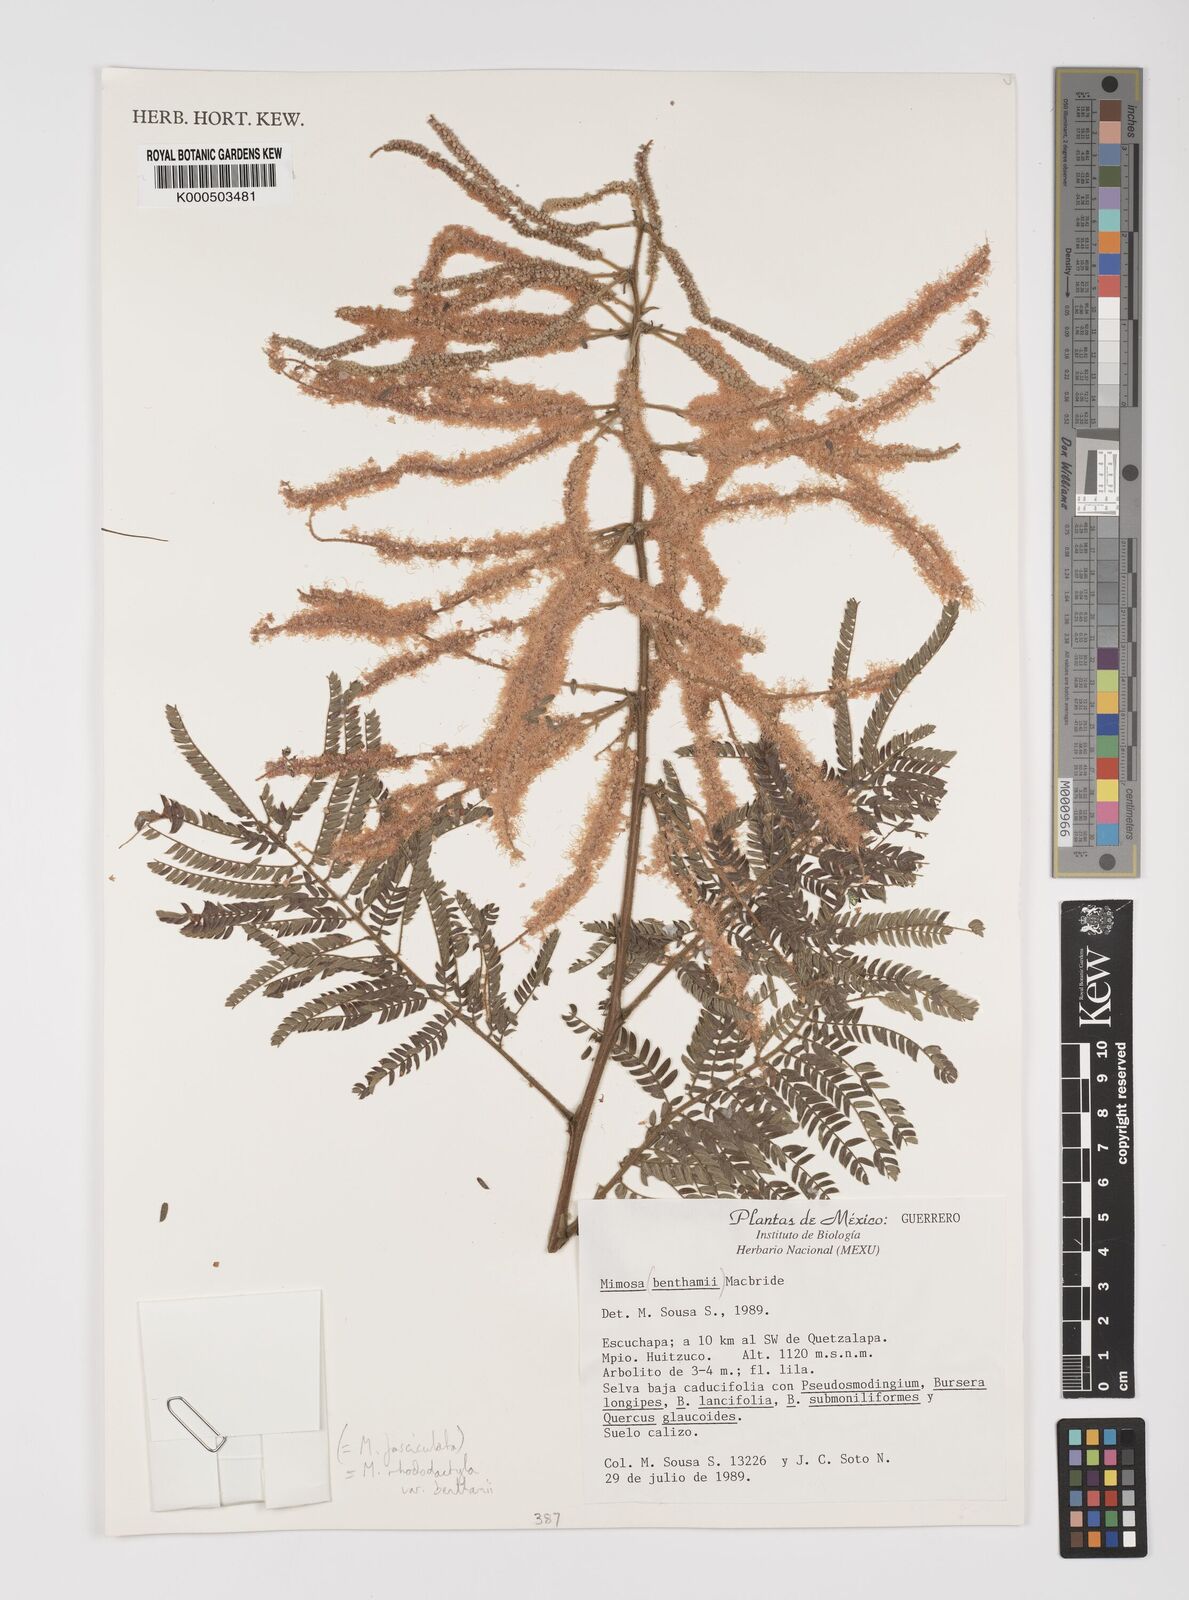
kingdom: Plantae
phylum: Tracheophyta
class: Magnoliopsida
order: Fabales
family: Fabaceae
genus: Mimosa
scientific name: Mimosa benthamii
